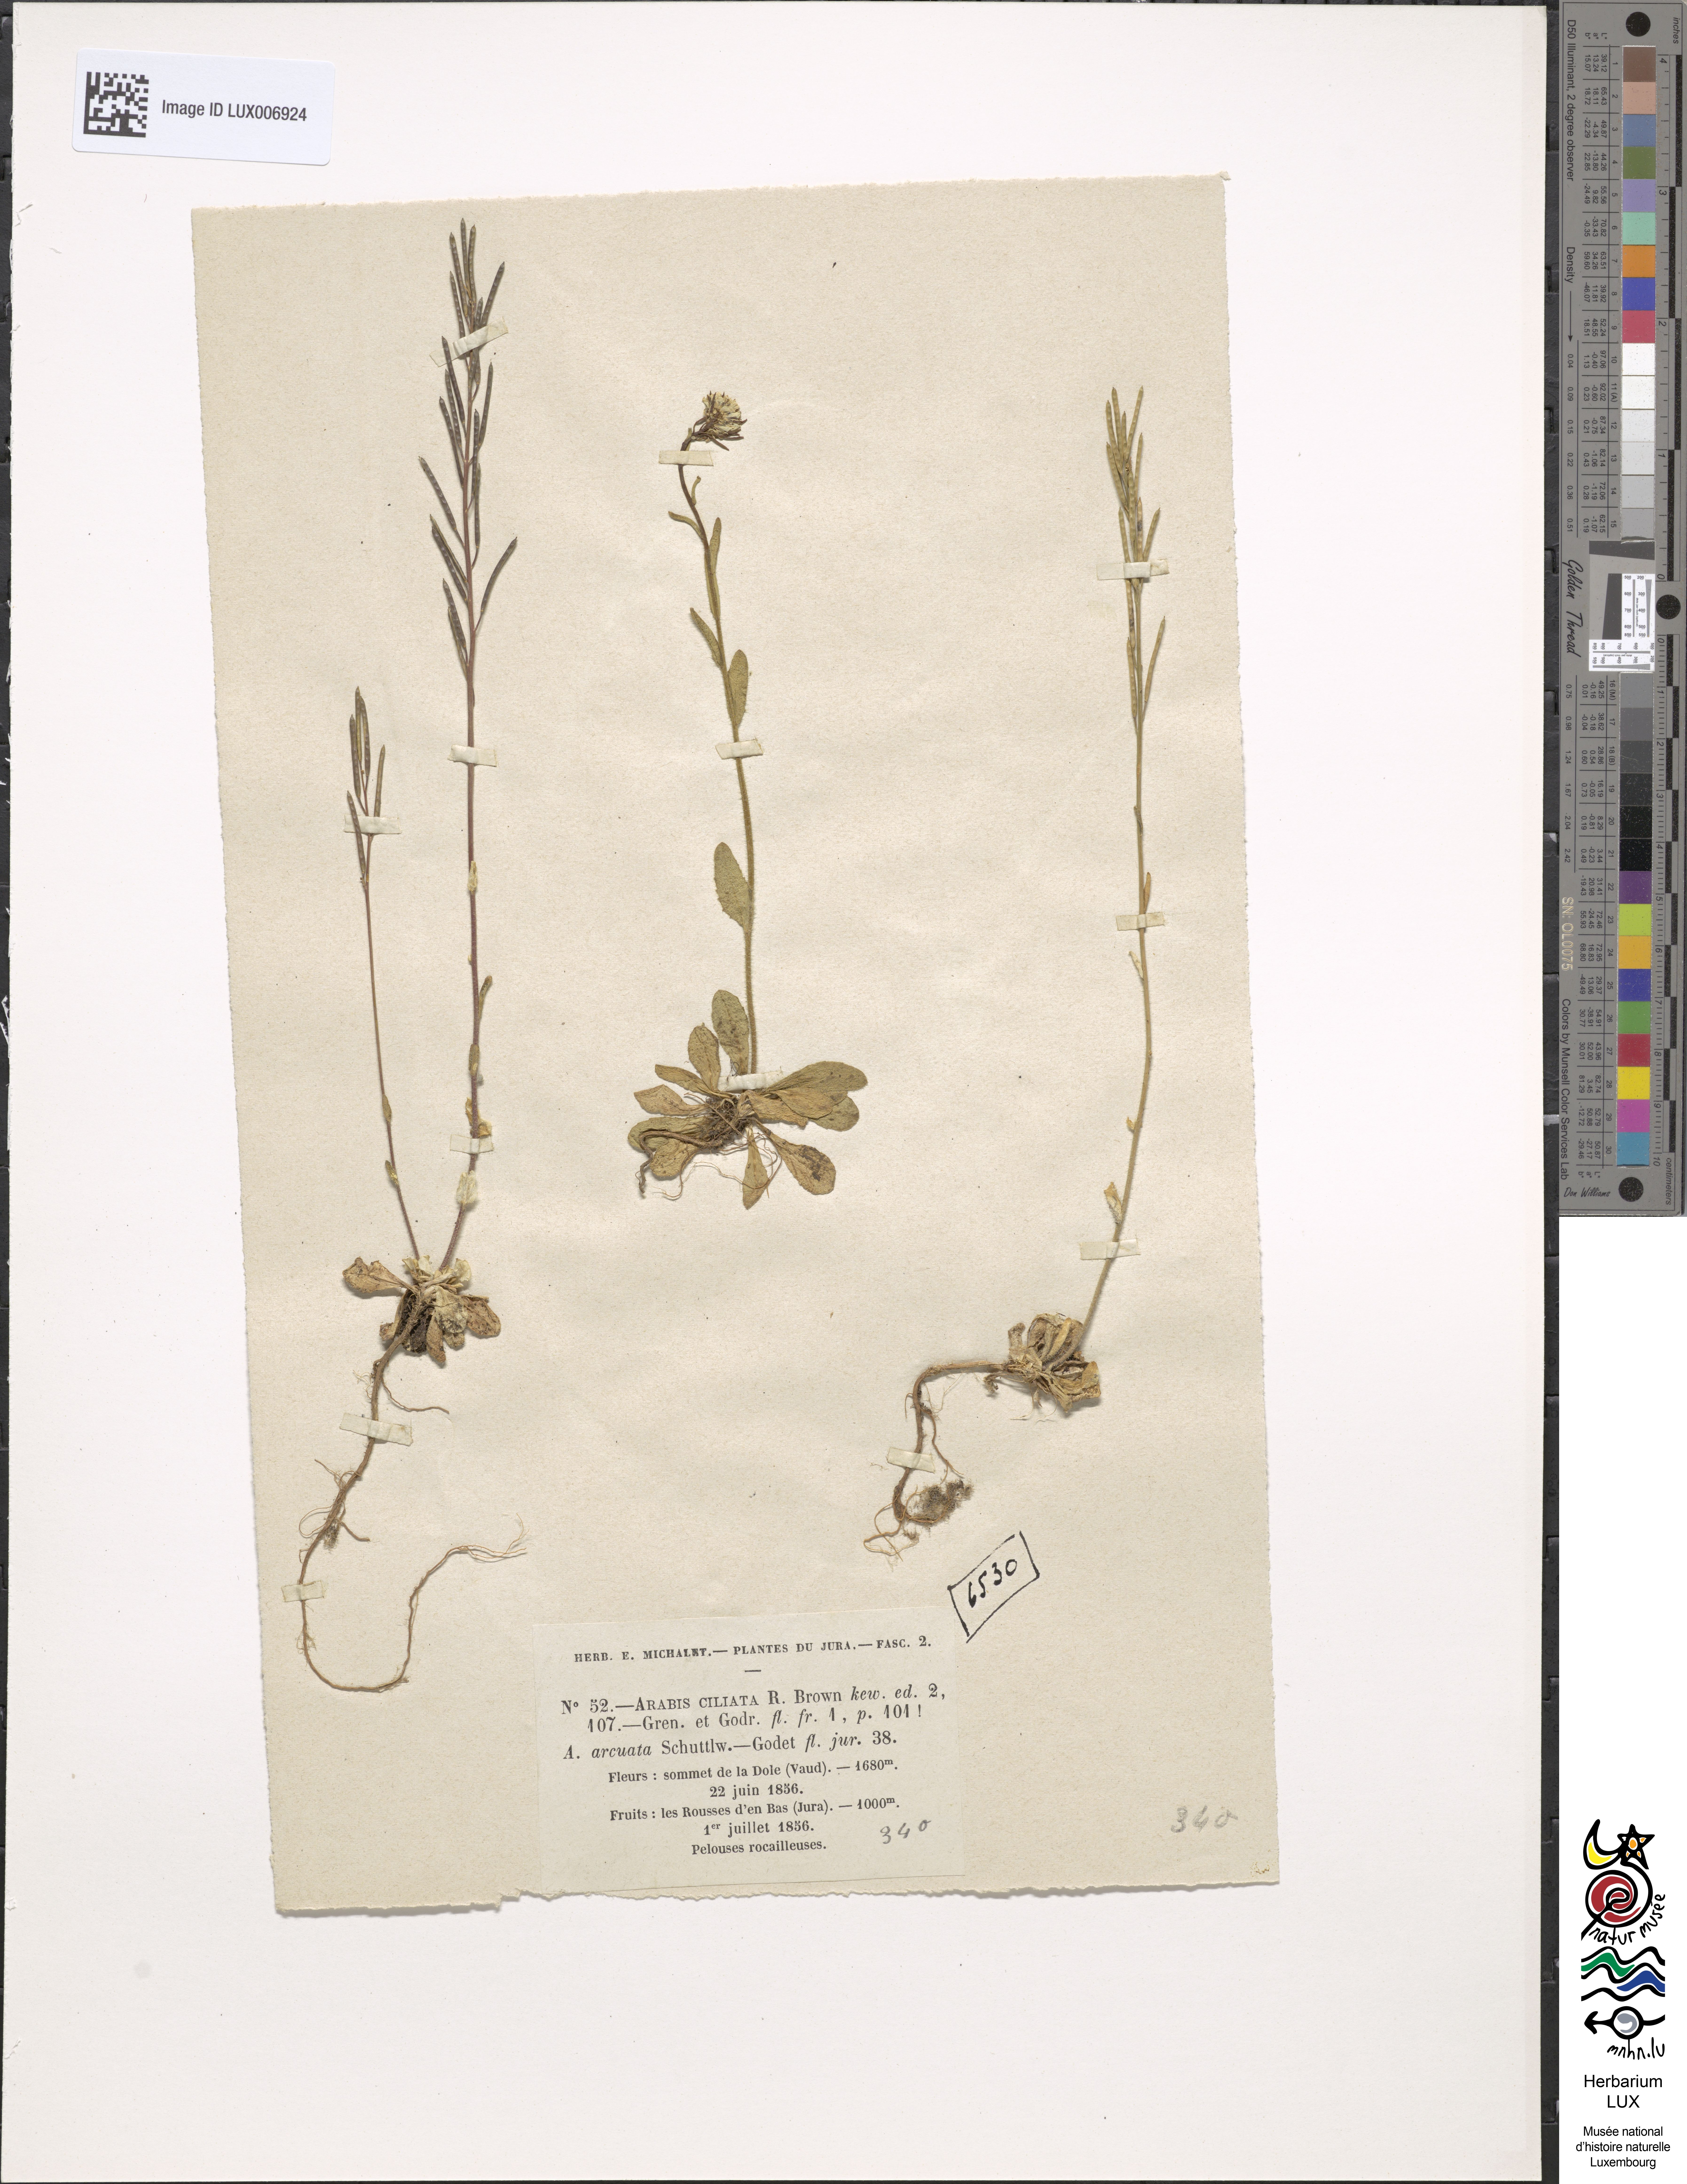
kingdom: Plantae
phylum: Tracheophyta
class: Magnoliopsida
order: Brassicales
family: Brassicaceae
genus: Arabis
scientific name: Arabis ciliata
